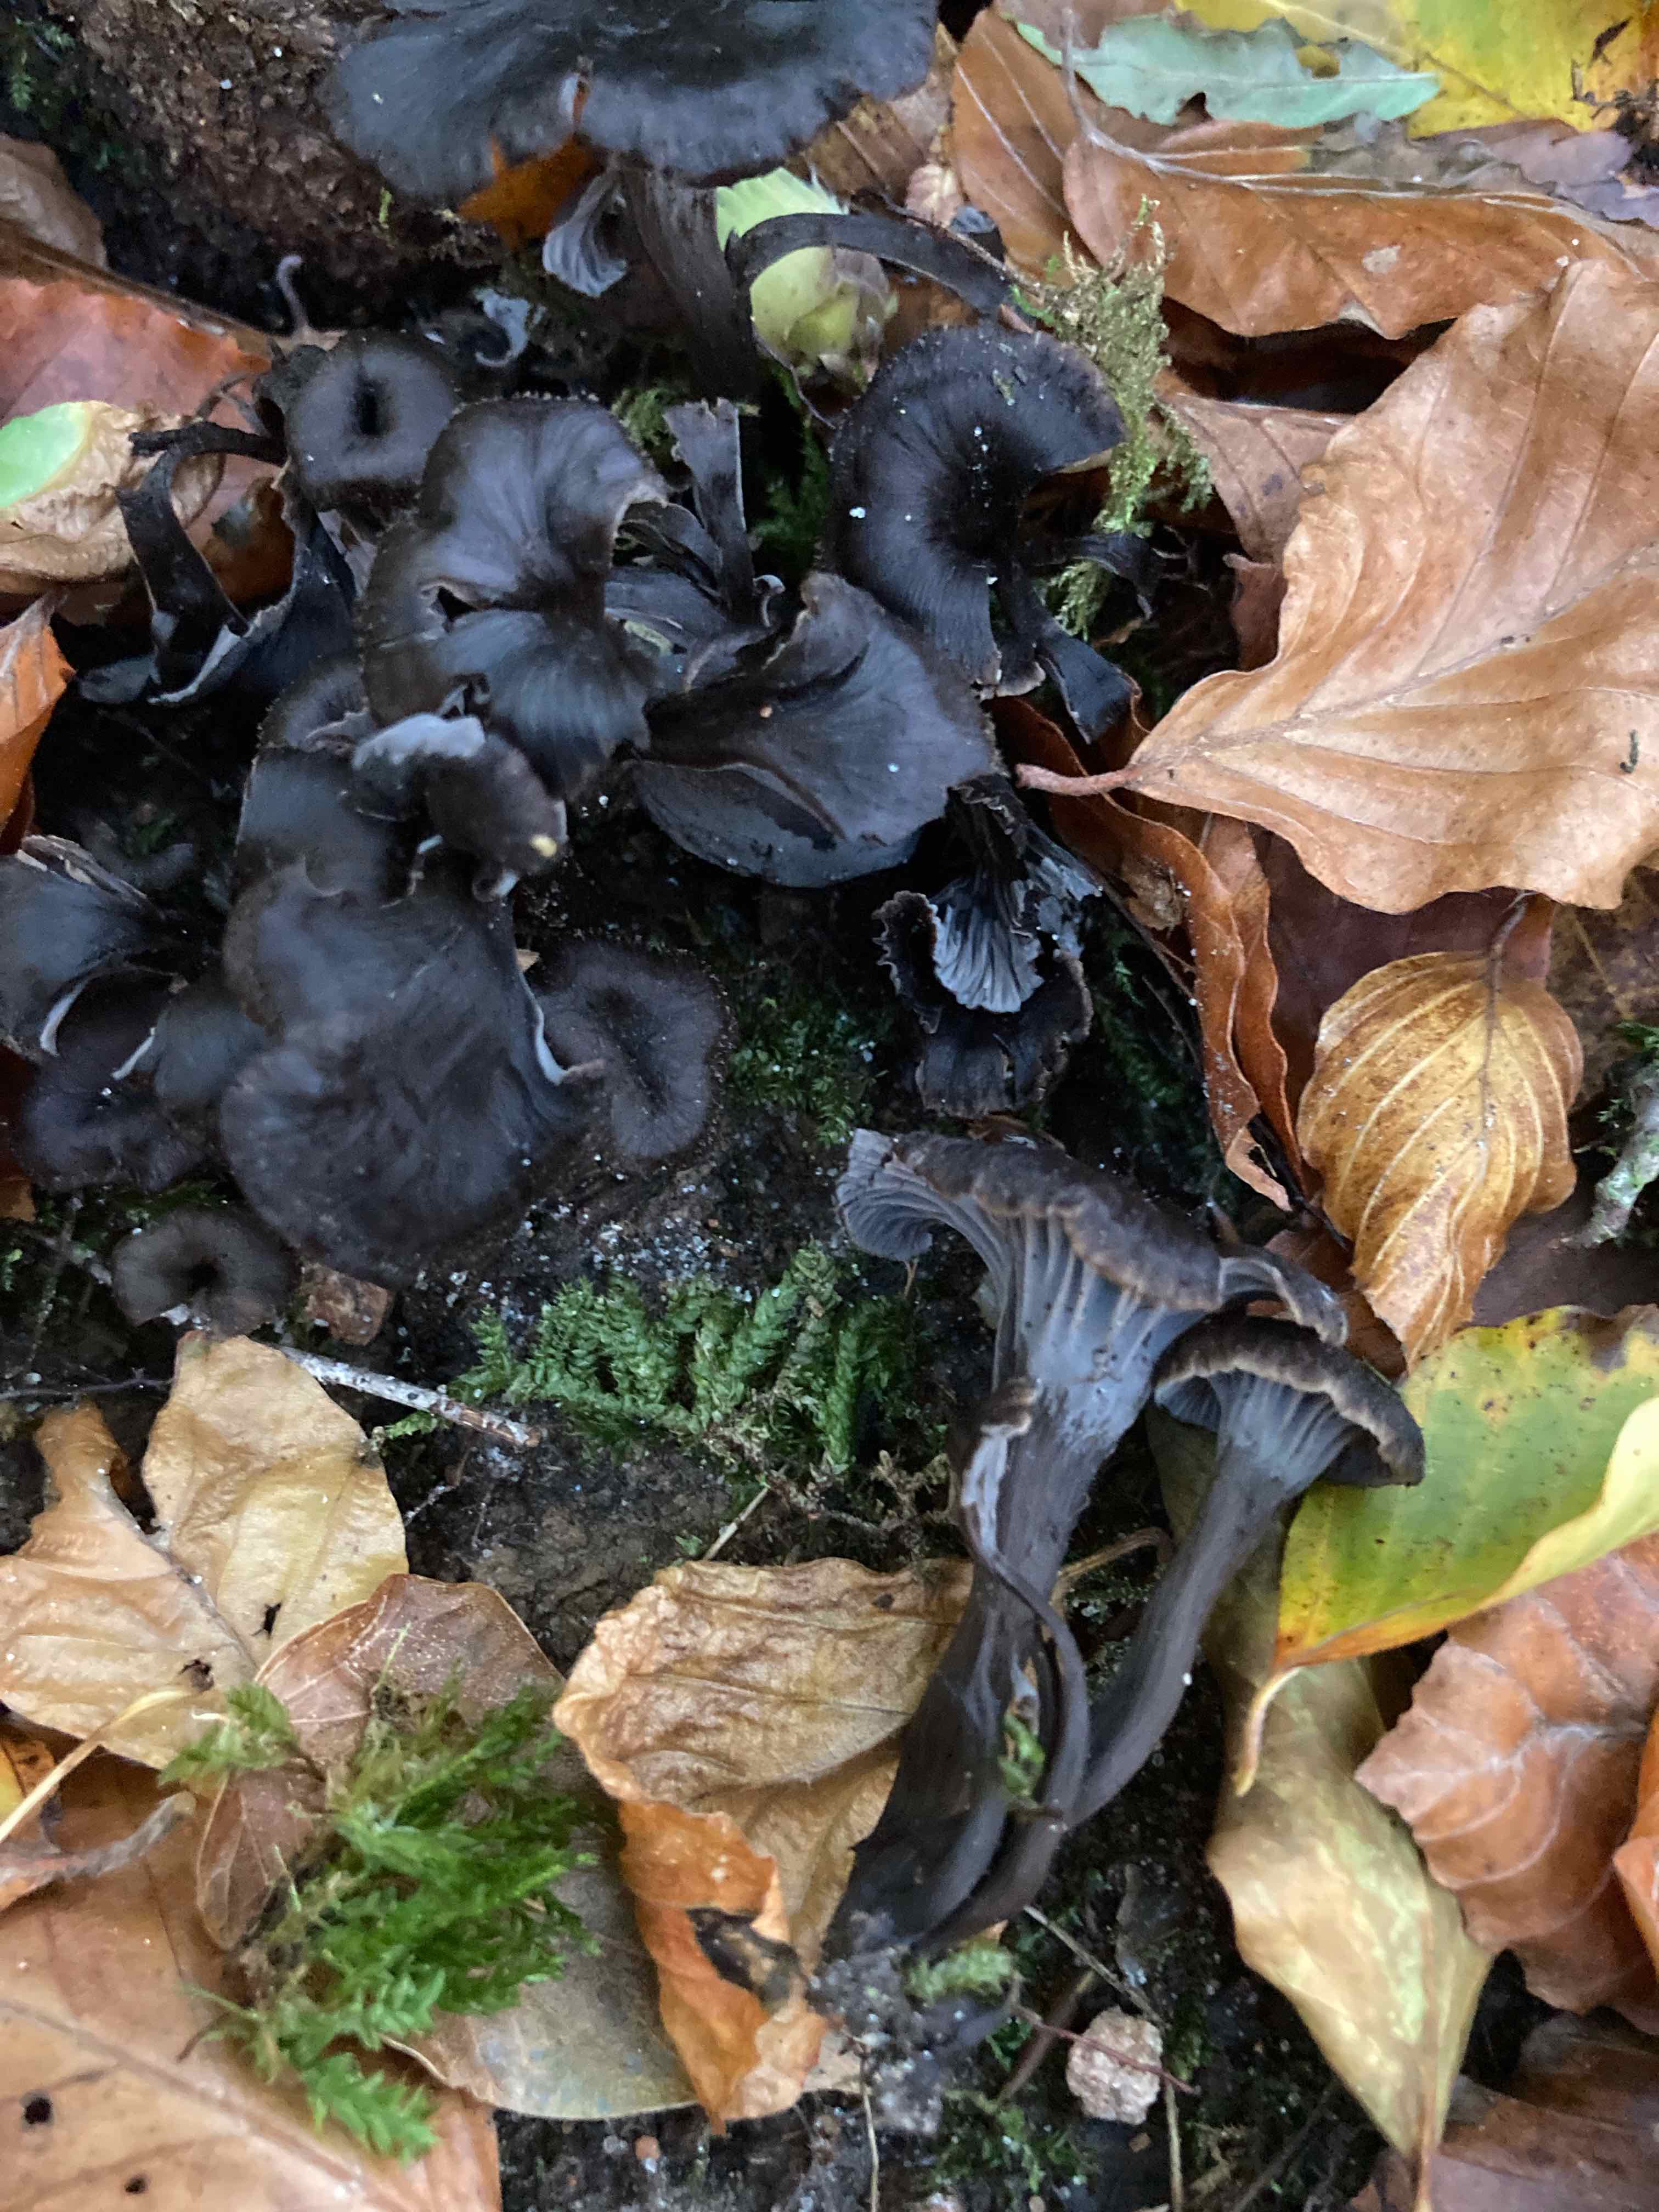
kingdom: Fungi
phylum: Basidiomycota
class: Agaricomycetes
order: Cantharellales
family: Hydnaceae
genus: Cantharellus
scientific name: Cantharellus cinereus
